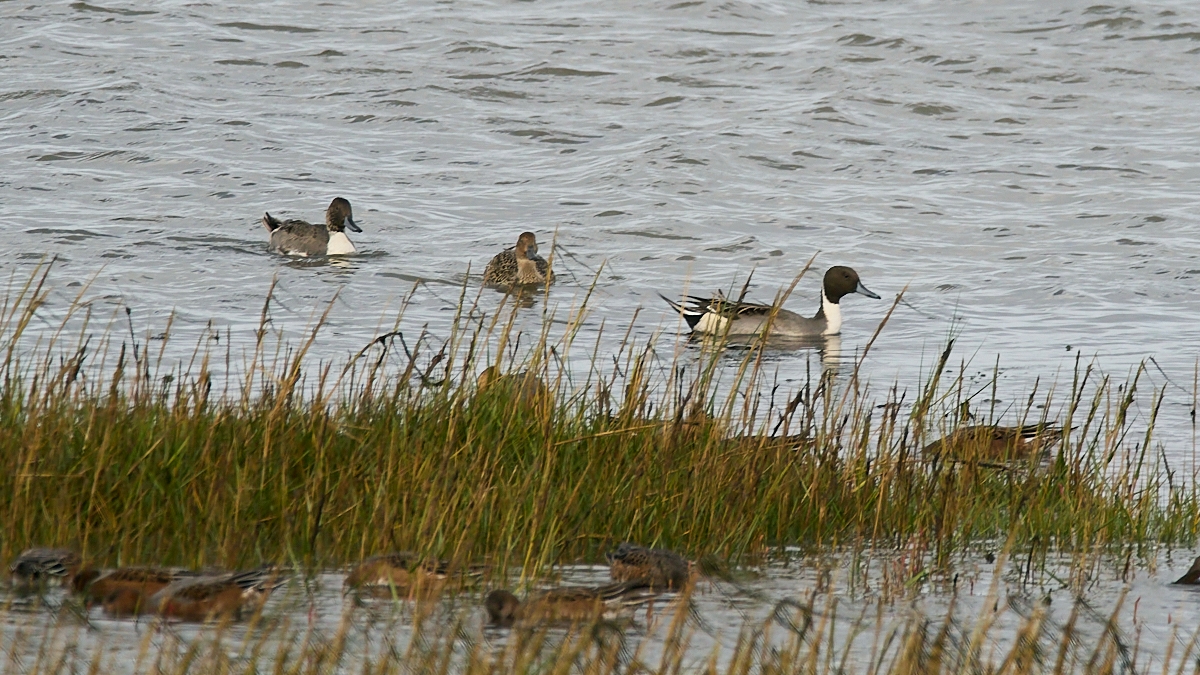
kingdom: Animalia
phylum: Chordata
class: Aves
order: Anseriformes
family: Anatidae
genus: Anas
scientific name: Anas acuta
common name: Spidsand
